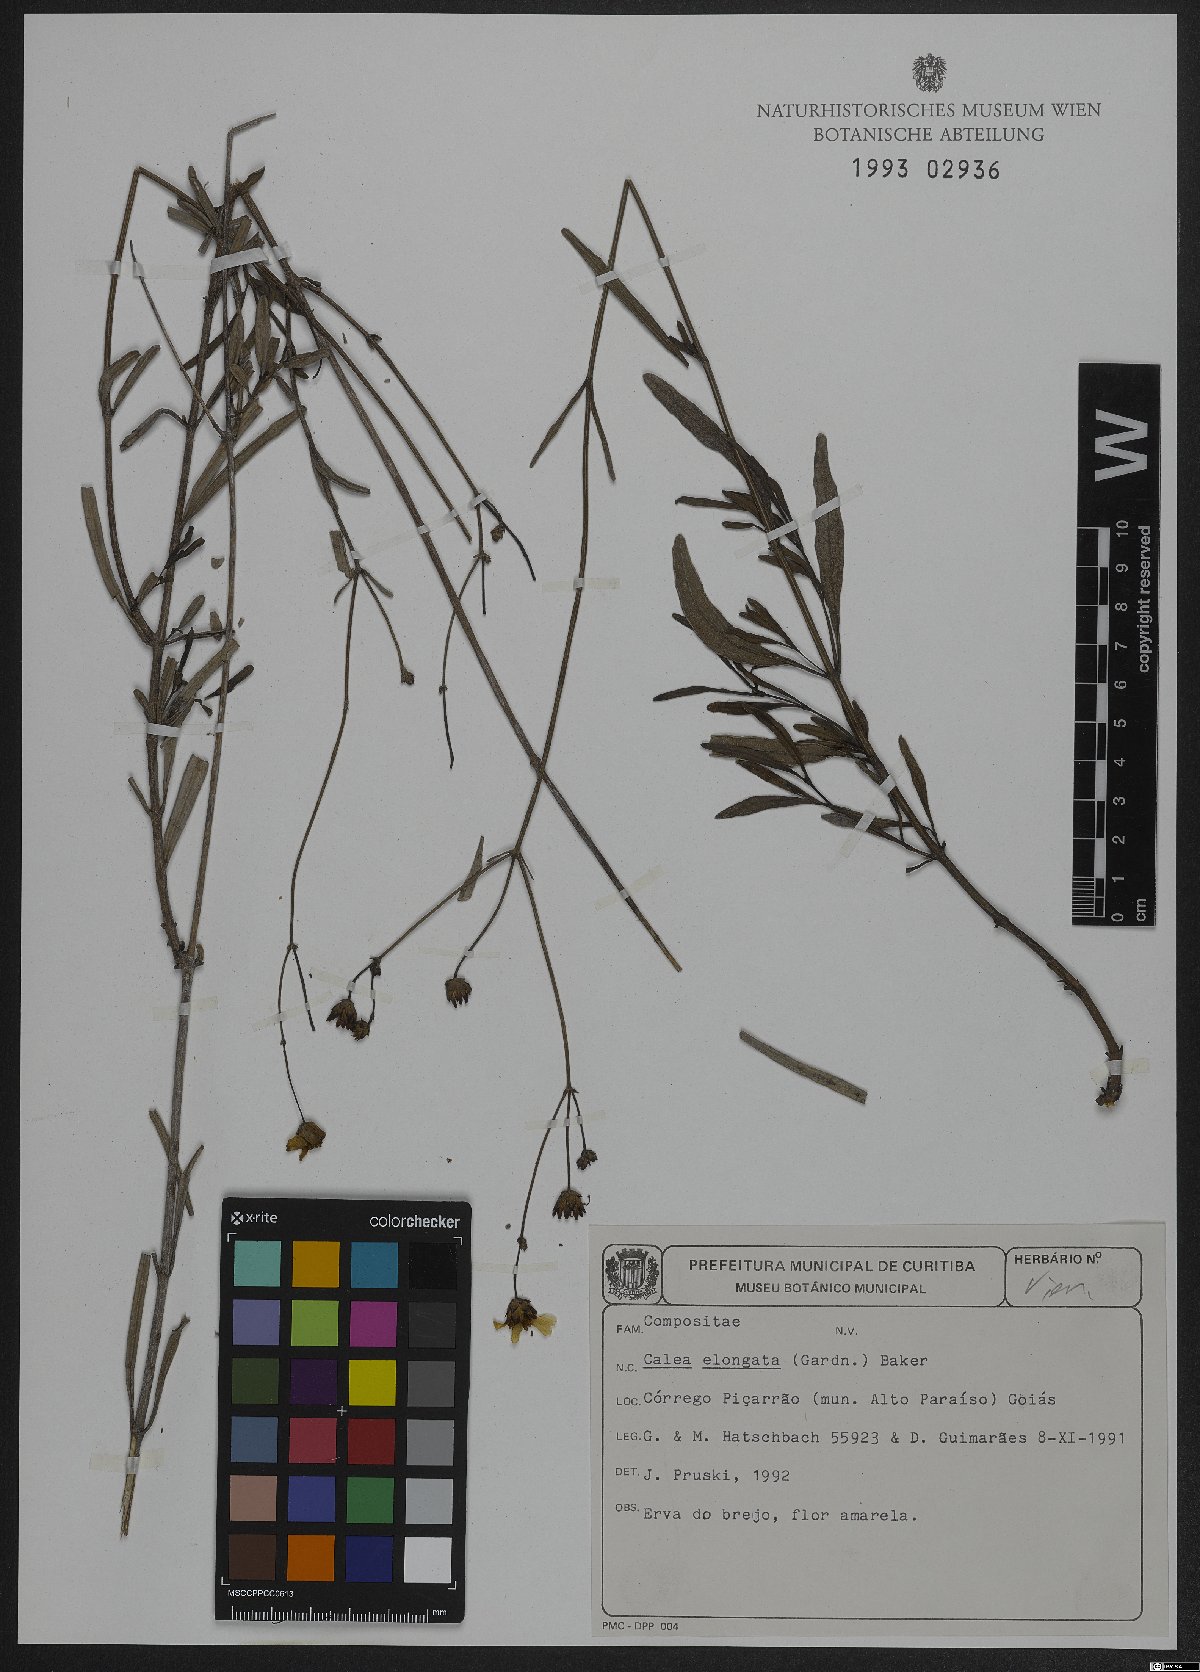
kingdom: Plantae
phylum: Tracheophyta
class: Magnoliopsida
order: Asterales
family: Asteraceae
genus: Calea
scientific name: Calea elongata
